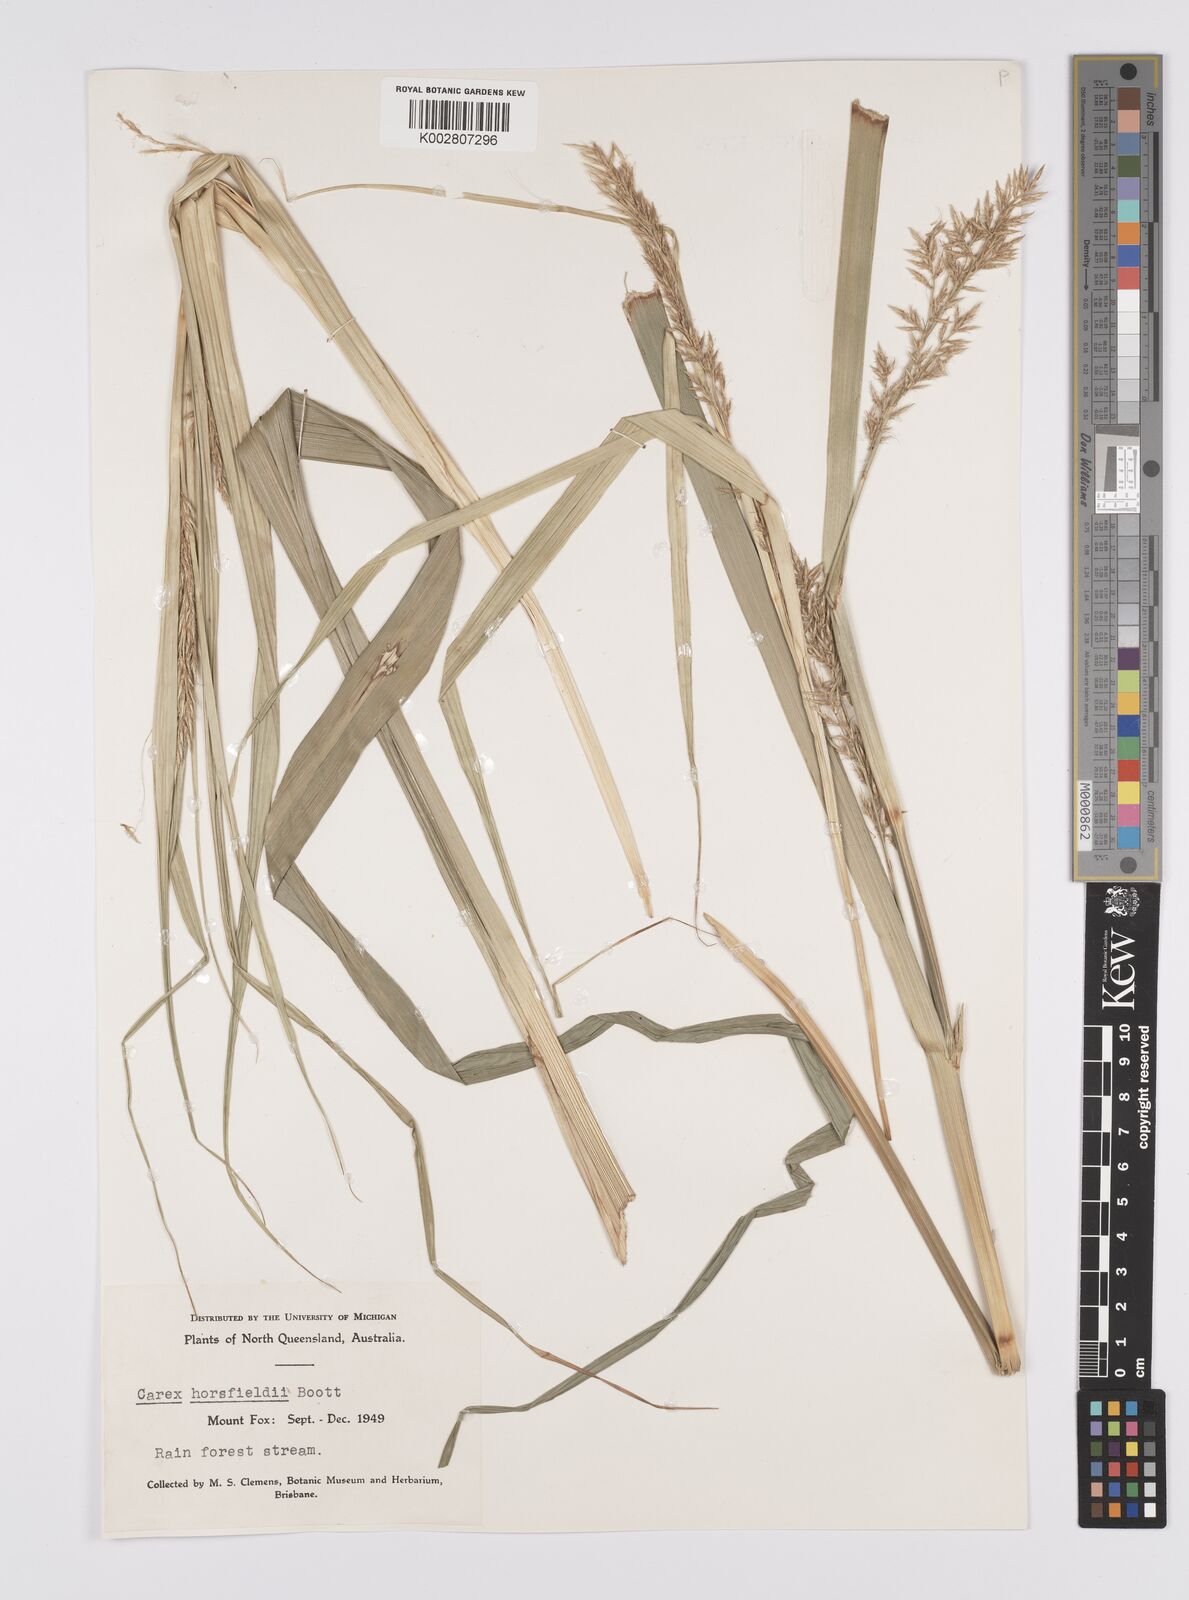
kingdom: Plantae
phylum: Tracheophyta
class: Liliopsida
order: Poales
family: Cyperaceae
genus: Carex
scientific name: Carex horsfieldii
